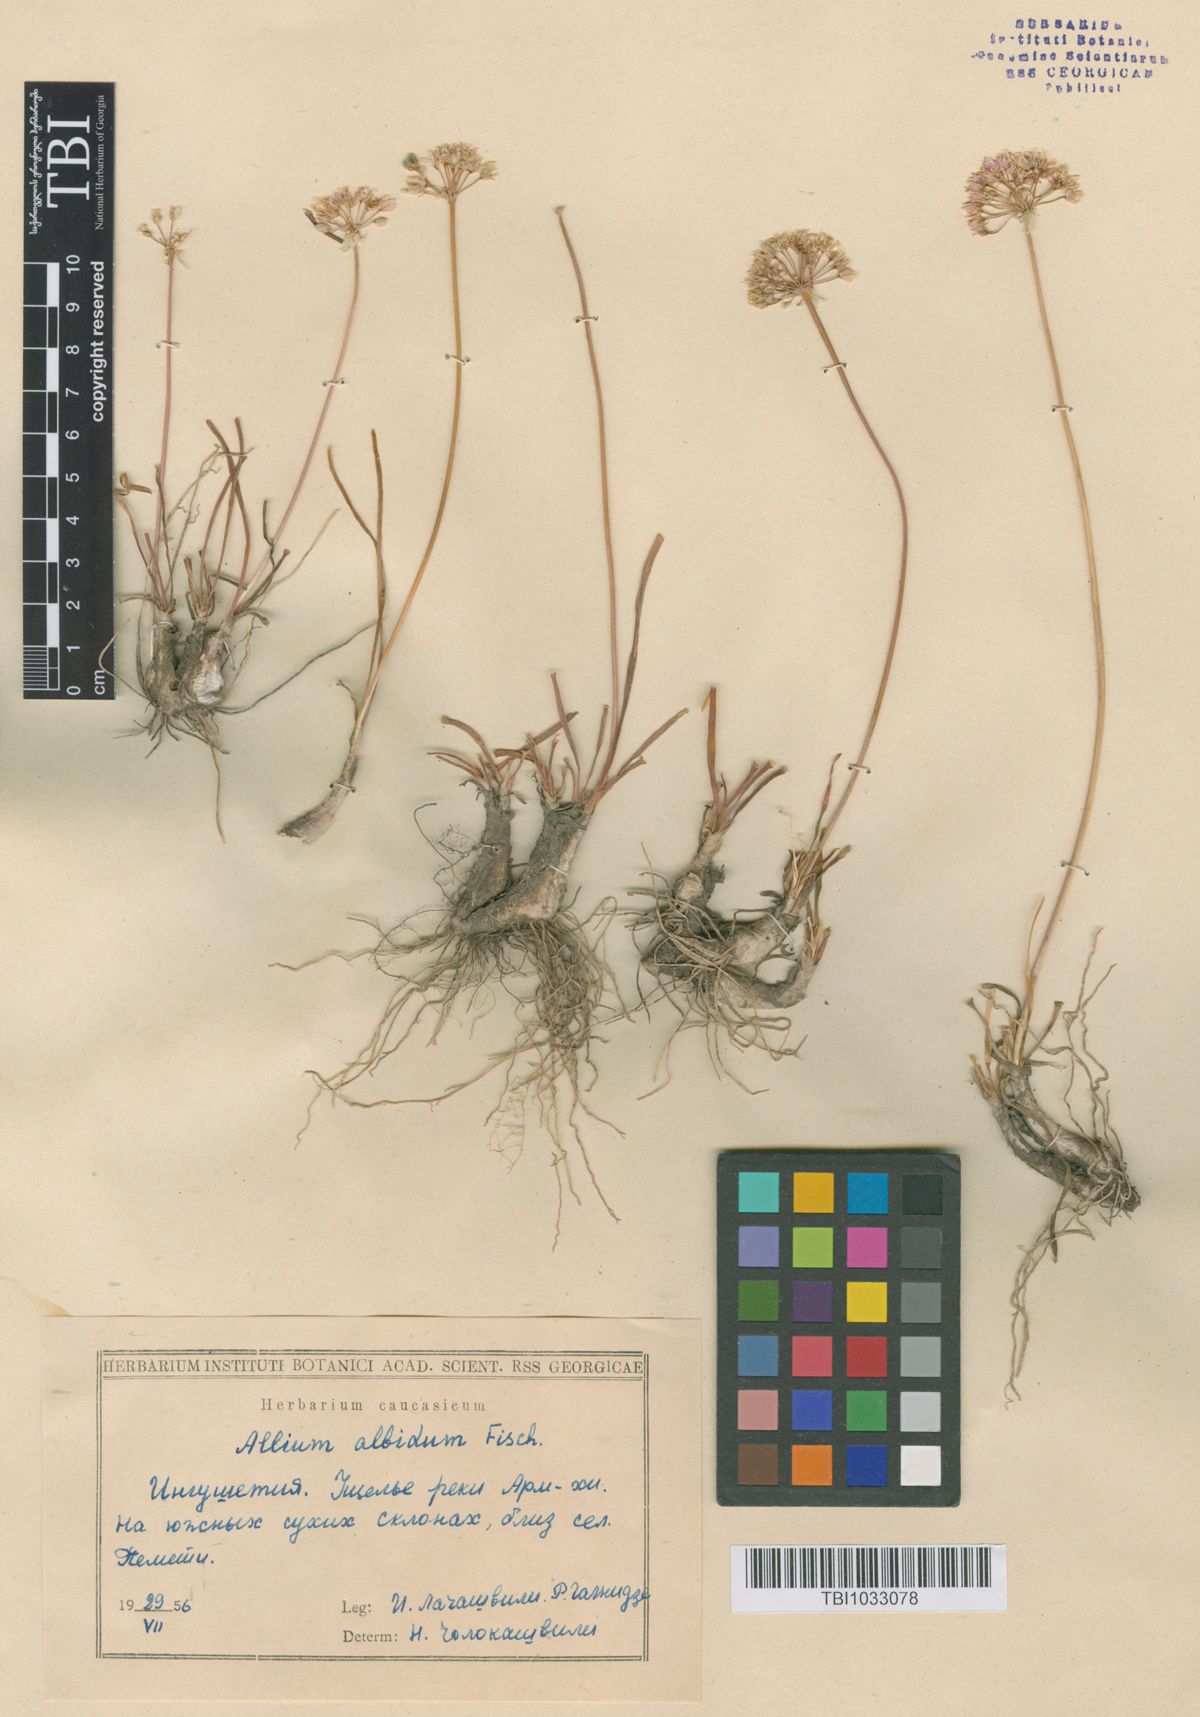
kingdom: Plantae
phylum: Tracheophyta
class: Liliopsida
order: Asparagales
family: Amaryllidaceae
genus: Allium
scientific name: Allium denudatum
